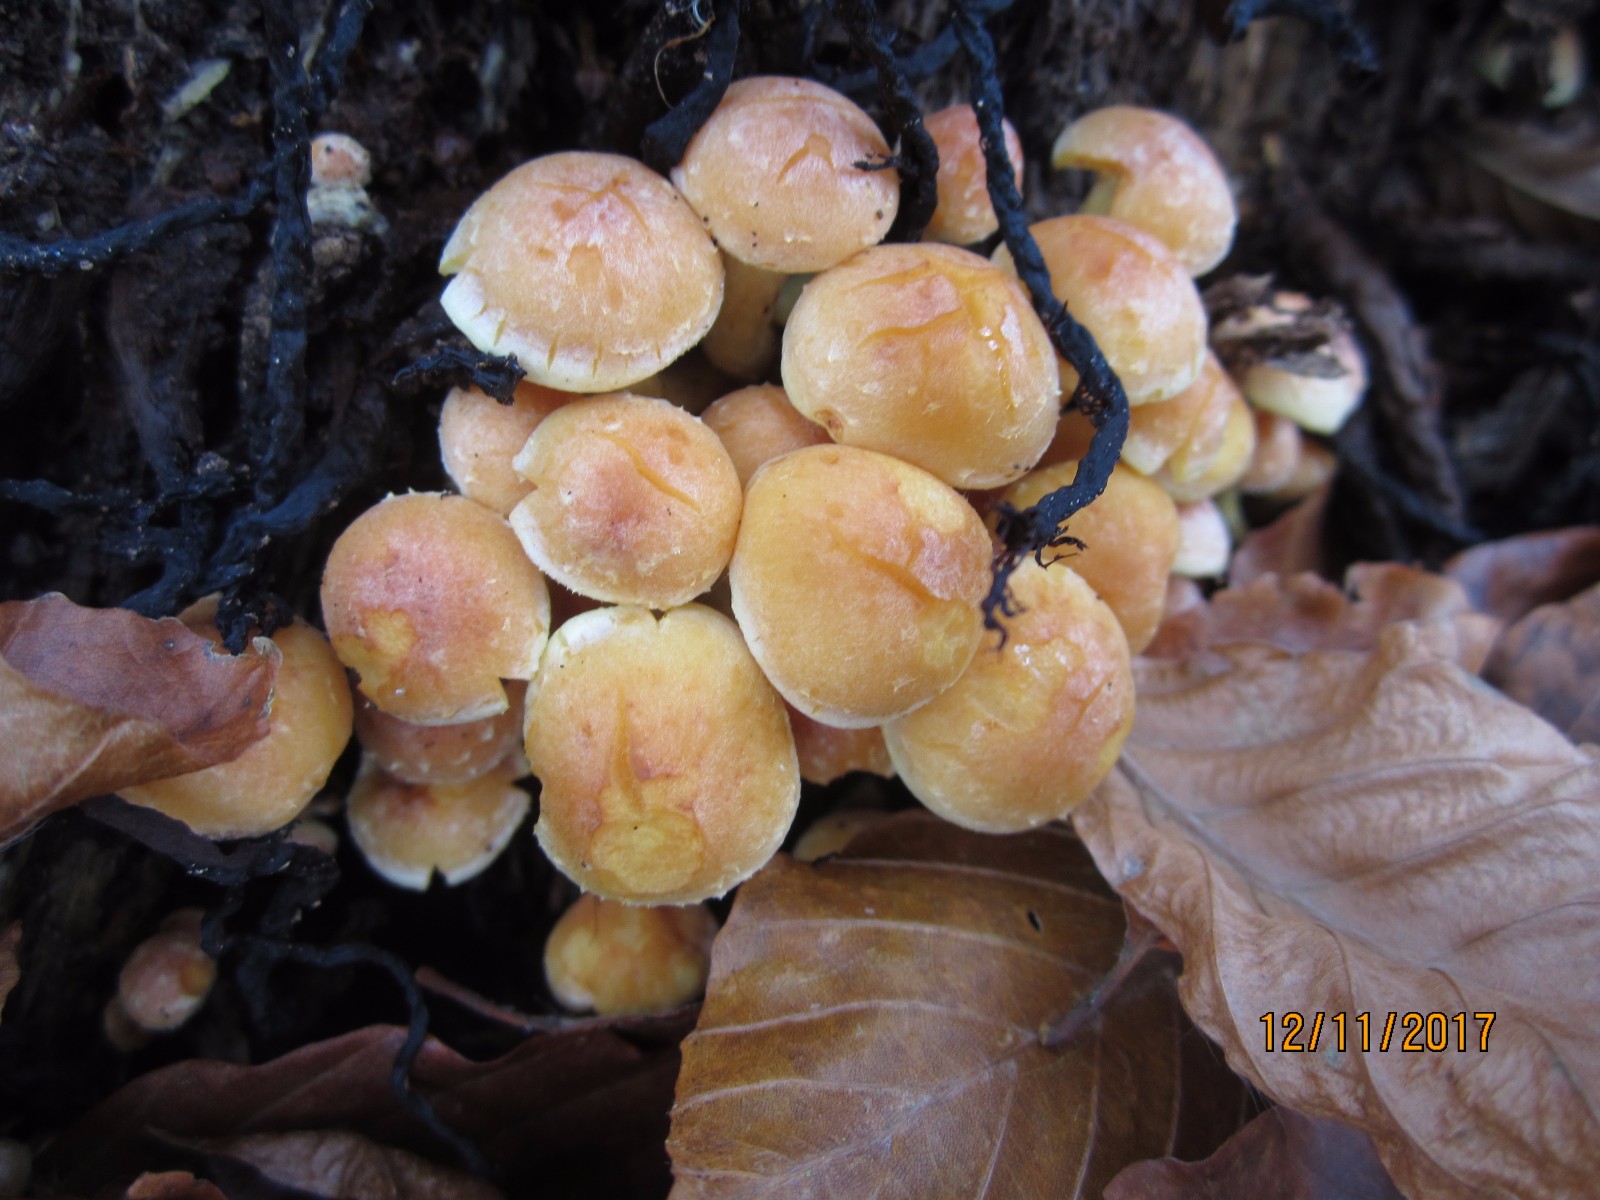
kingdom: Fungi
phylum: Basidiomycota
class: Agaricomycetes
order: Agaricales
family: Strophariaceae
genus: Hypholoma
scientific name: Hypholoma fasciculare
